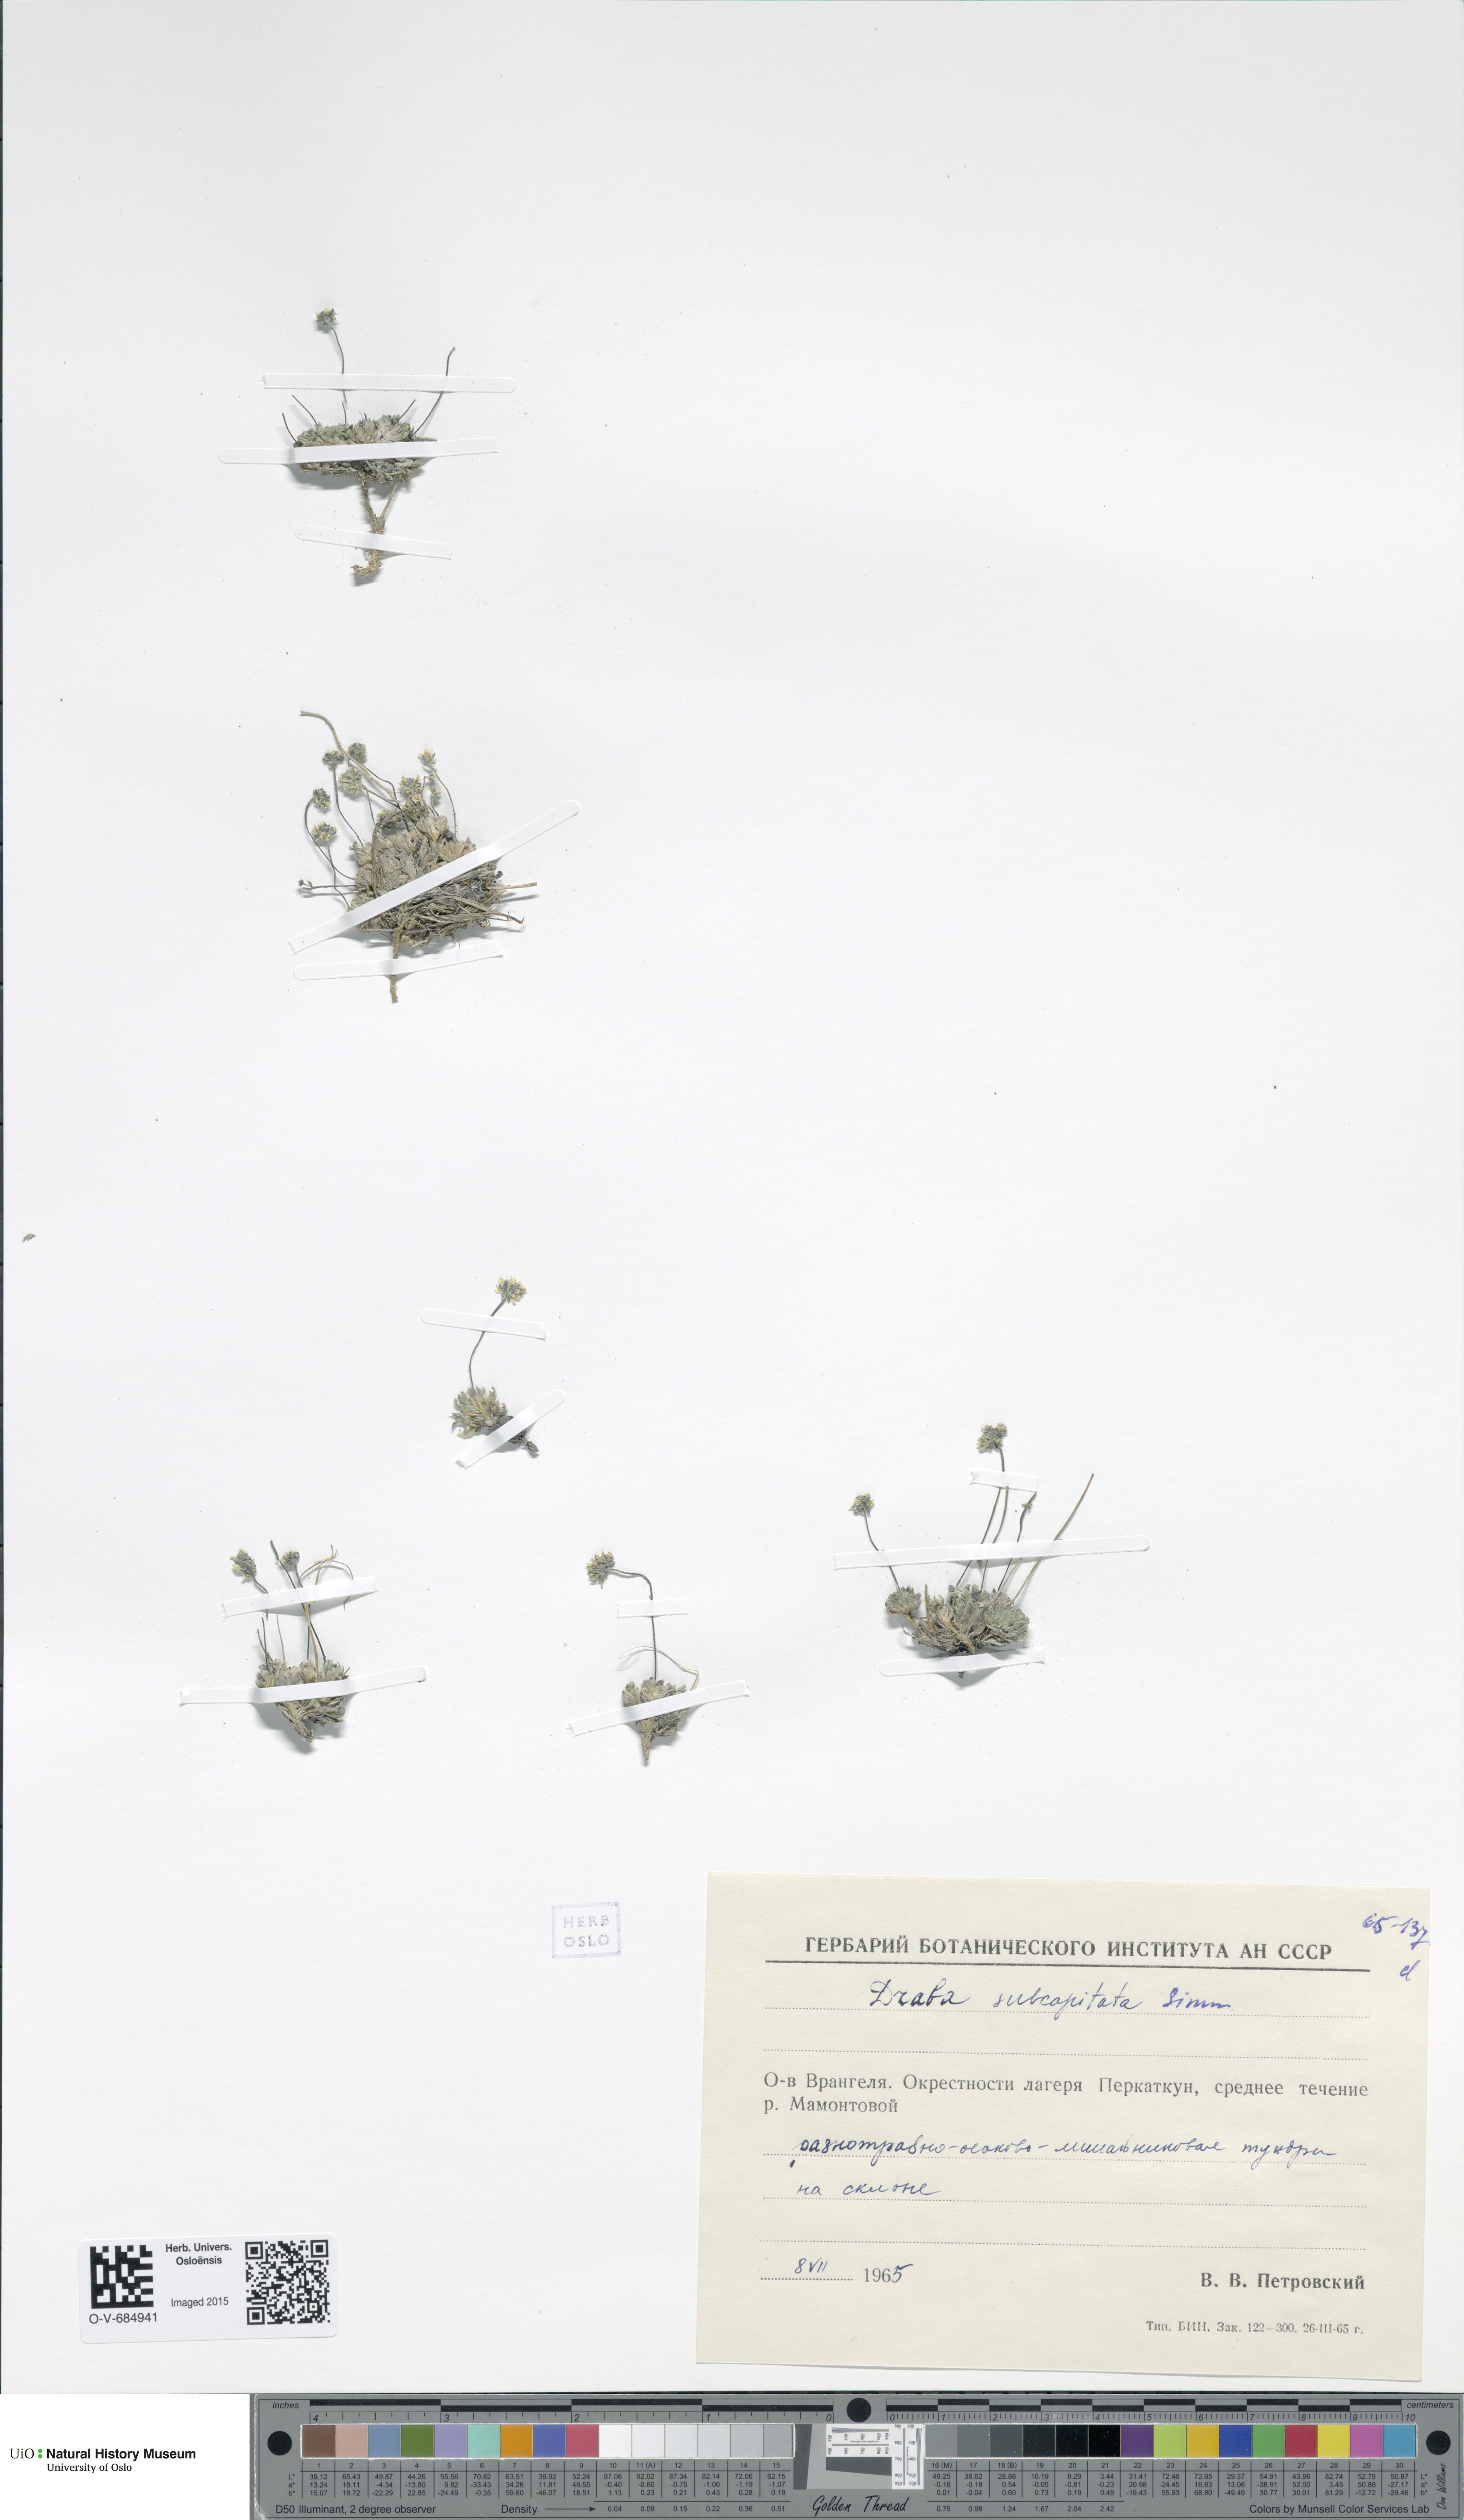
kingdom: Plantae
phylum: Tracheophyta
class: Magnoliopsida
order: Brassicales
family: Brassicaceae
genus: Draba
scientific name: Draba subcapitata
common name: Ellesmere island draba
